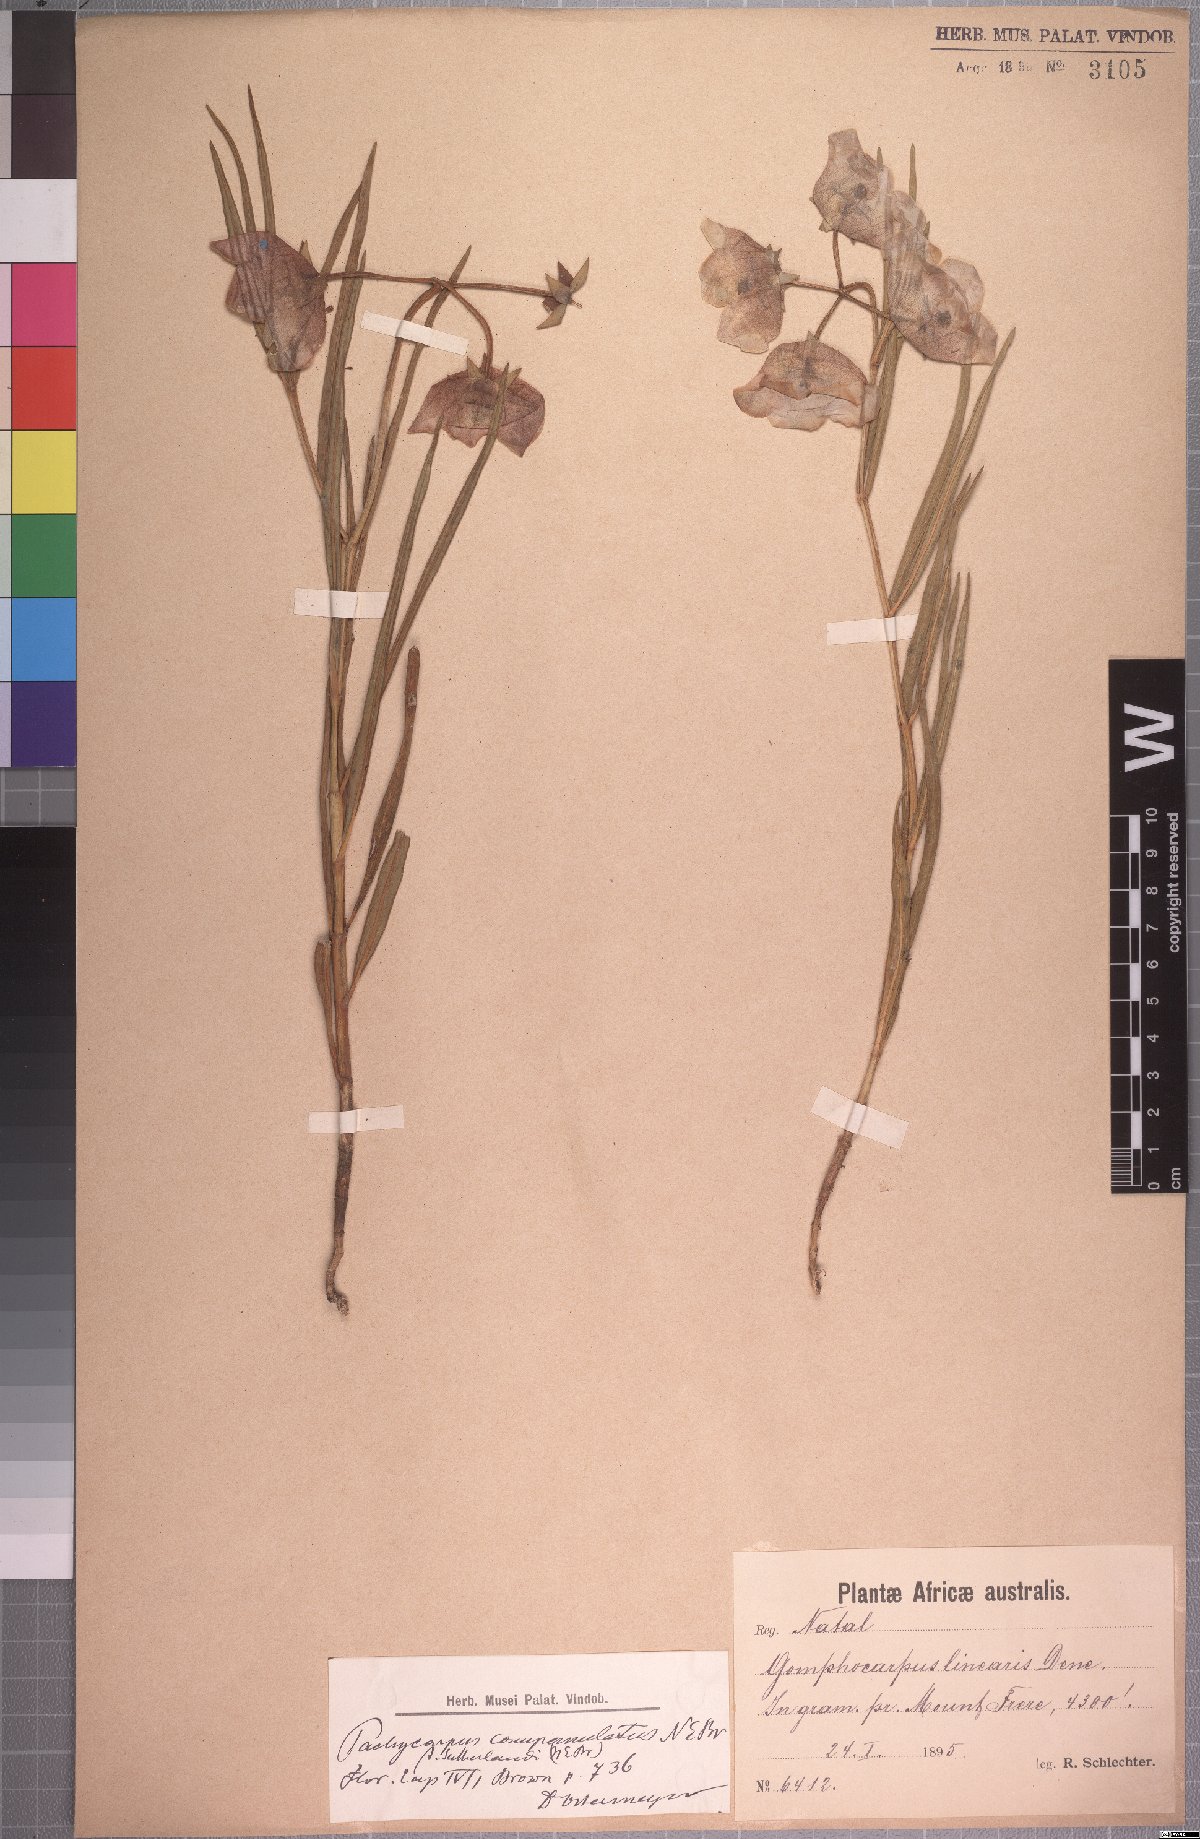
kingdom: Plantae
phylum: Tracheophyta
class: Magnoliopsida
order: Gentianales
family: Apocynaceae
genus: Pachycarpus
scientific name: Pachycarpus campanulatus
